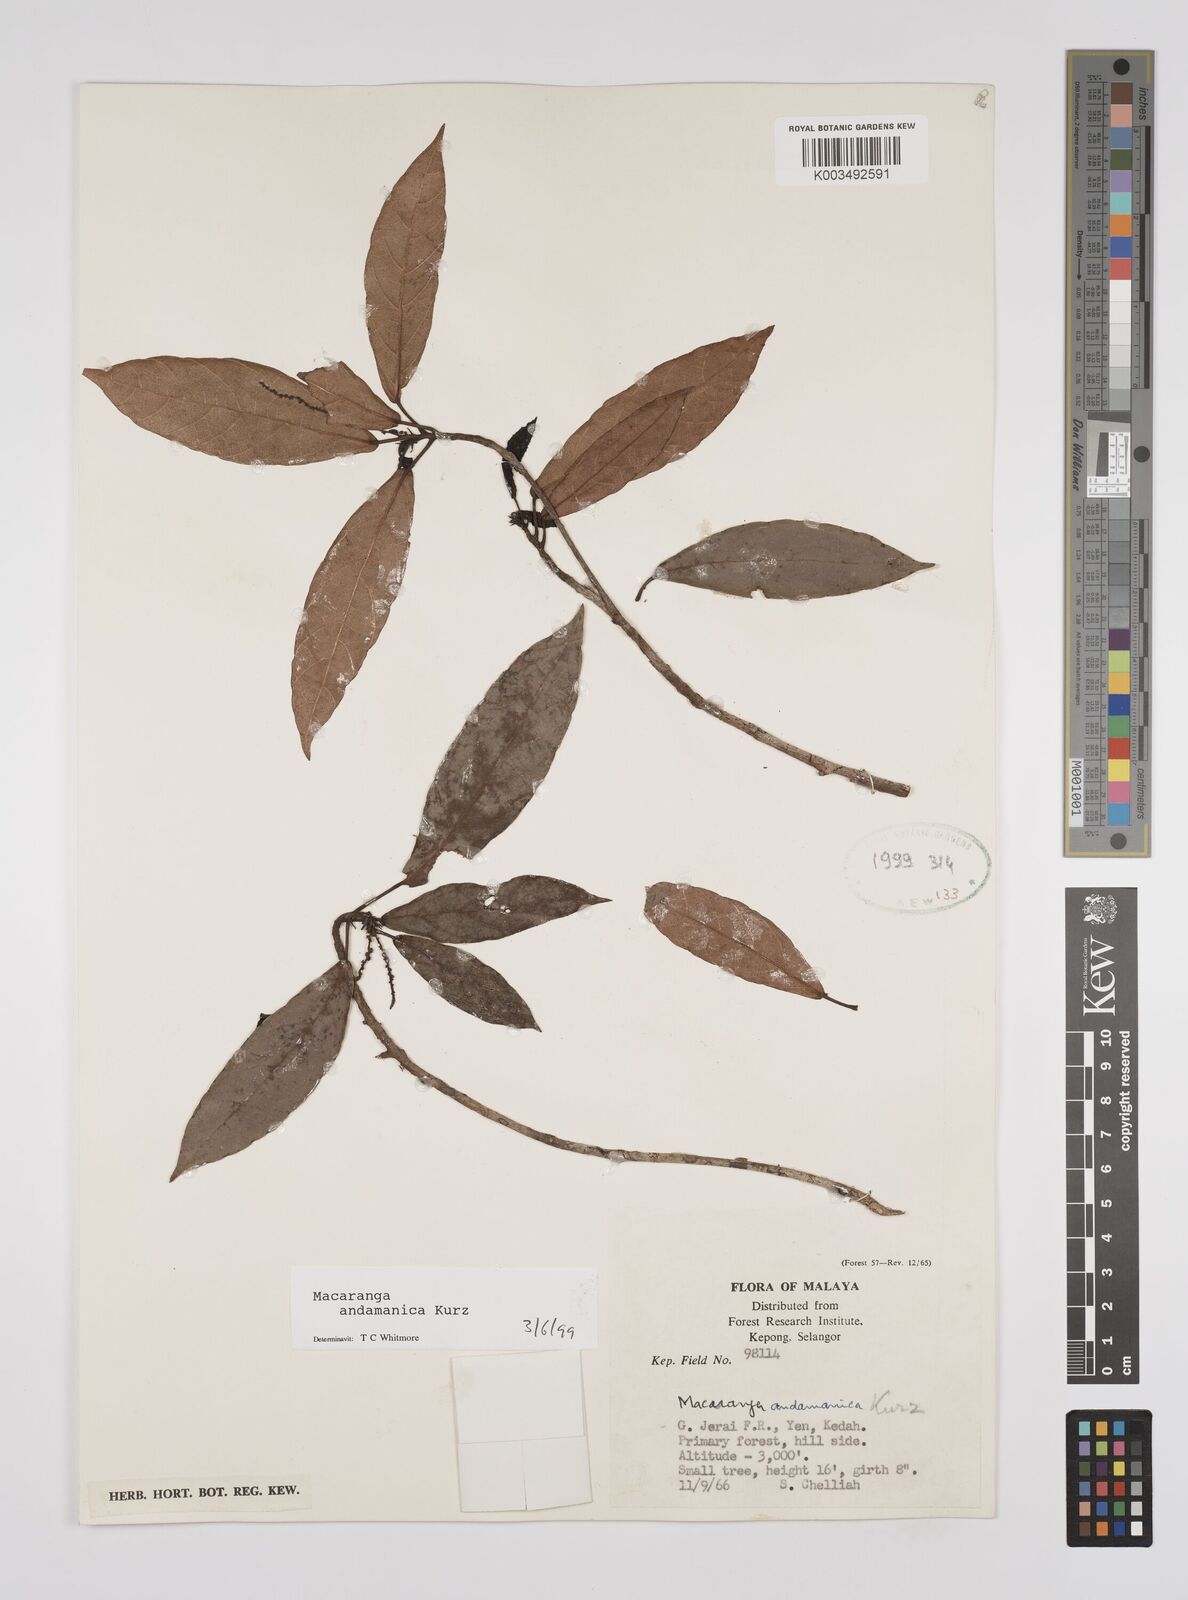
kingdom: Plantae
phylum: Tracheophyta
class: Magnoliopsida
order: Malpighiales
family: Euphorbiaceae
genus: Macaranga
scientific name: Macaranga andamanica
